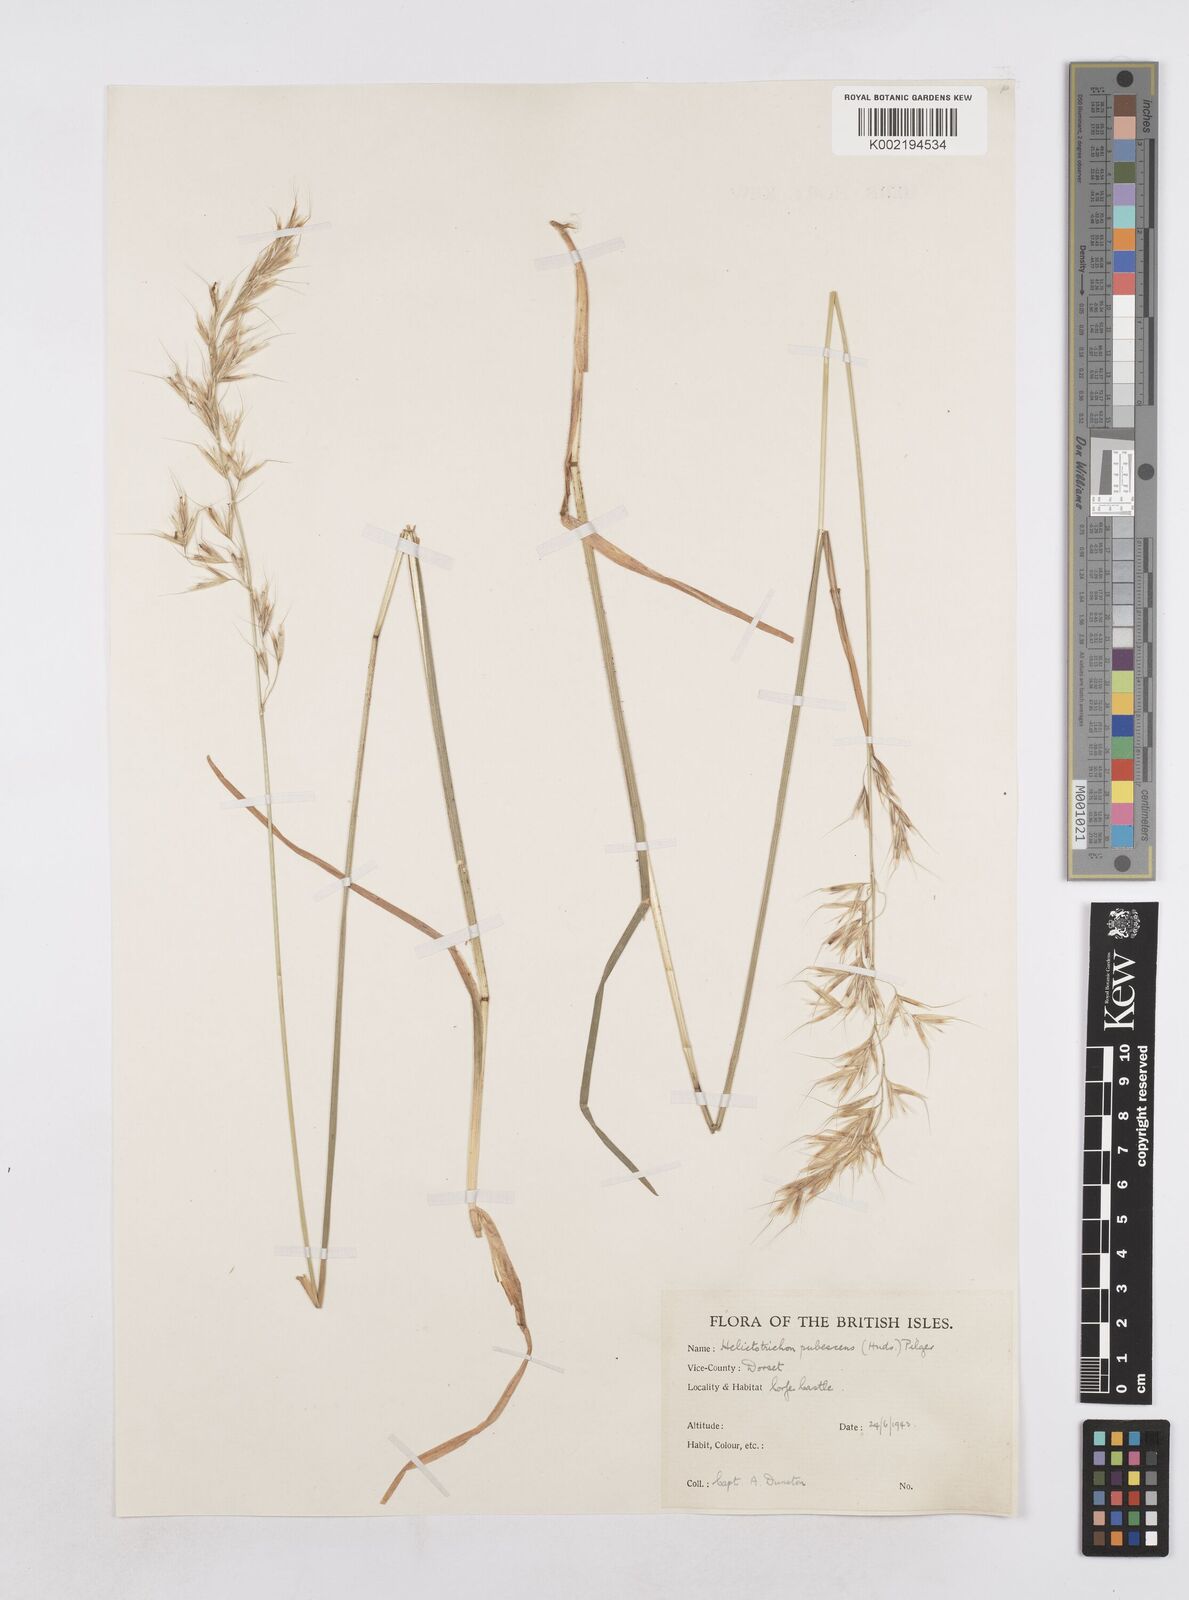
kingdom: Plantae
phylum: Tracheophyta
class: Liliopsida
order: Poales
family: Poaceae
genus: Avenula
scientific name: Avenula pubescens
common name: Downy alpine oatgrass
